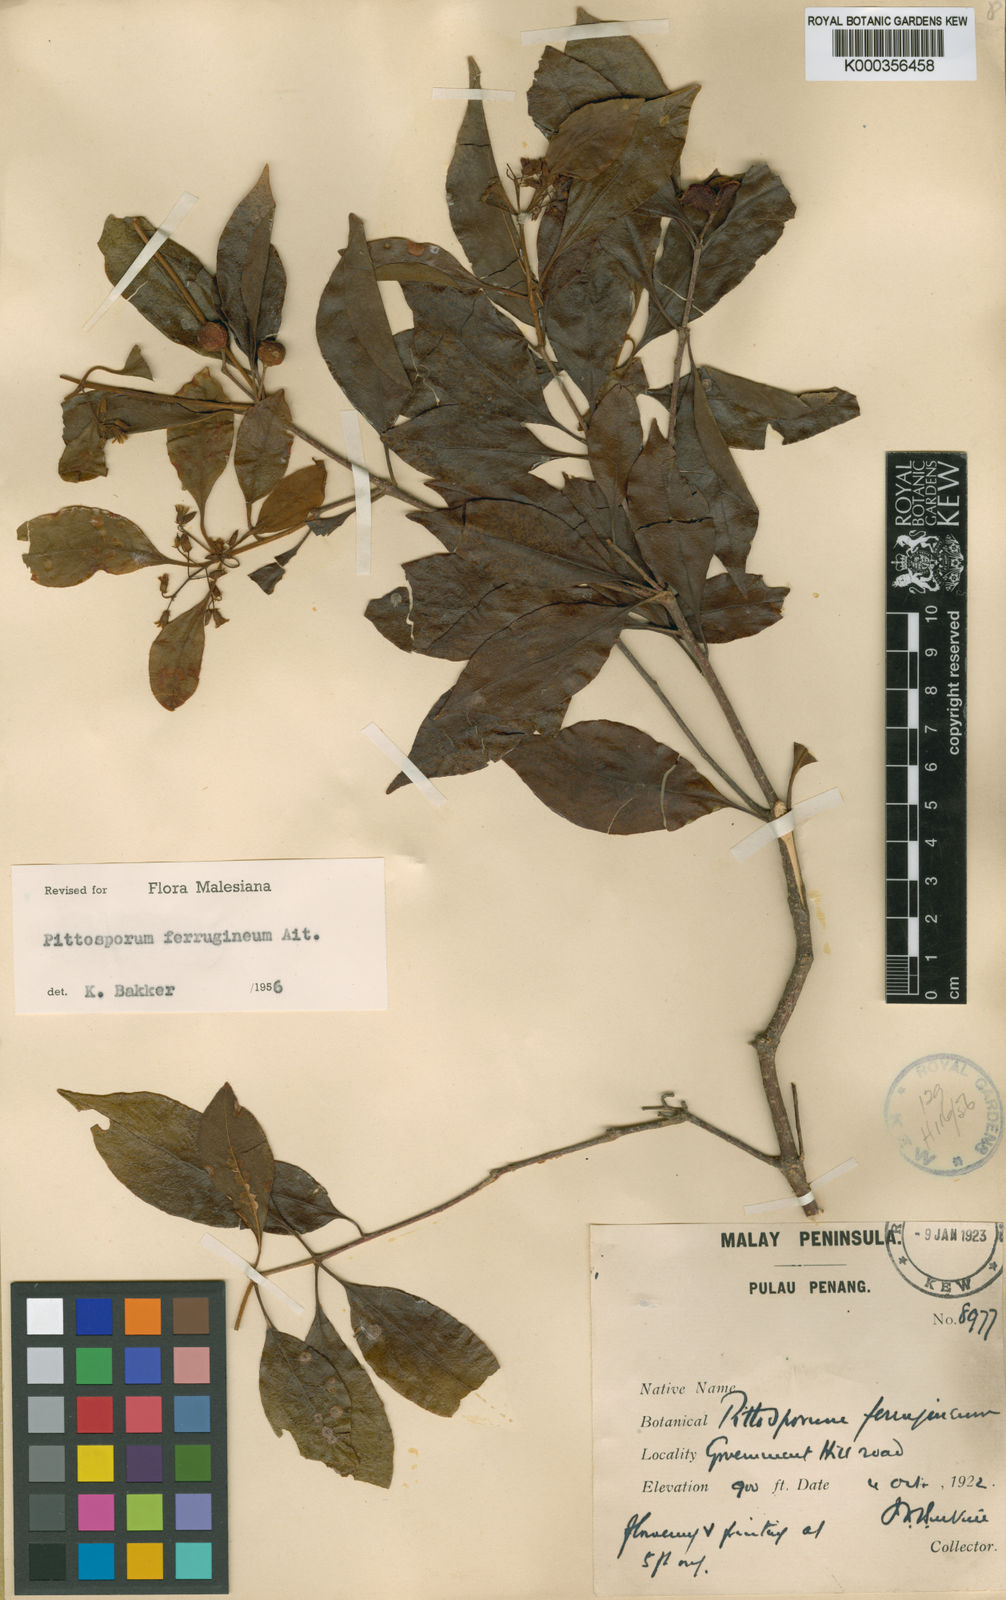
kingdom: Plantae
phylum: Tracheophyta
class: Magnoliopsida
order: Apiales
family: Pittosporaceae
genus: Pittosporum
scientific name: Pittosporum ferrugineum
